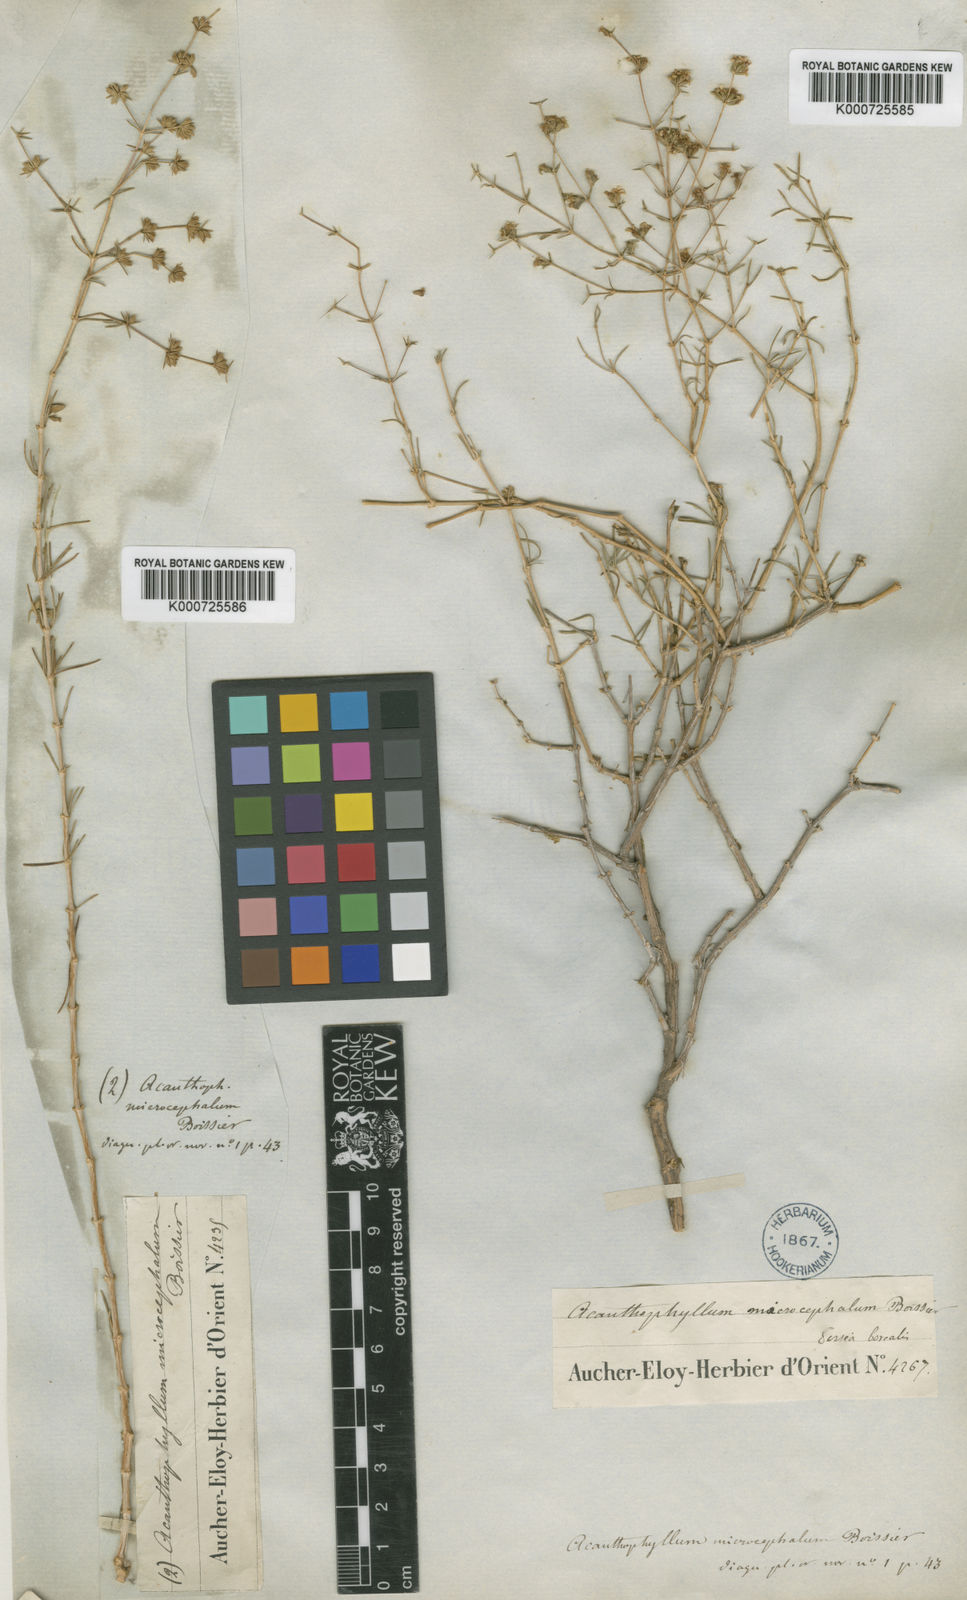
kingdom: Plantae
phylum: Tracheophyta
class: Magnoliopsida
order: Caryophyllales
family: Caryophyllaceae
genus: Acanthophyllum
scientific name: Acanthophyllum microcephalum
